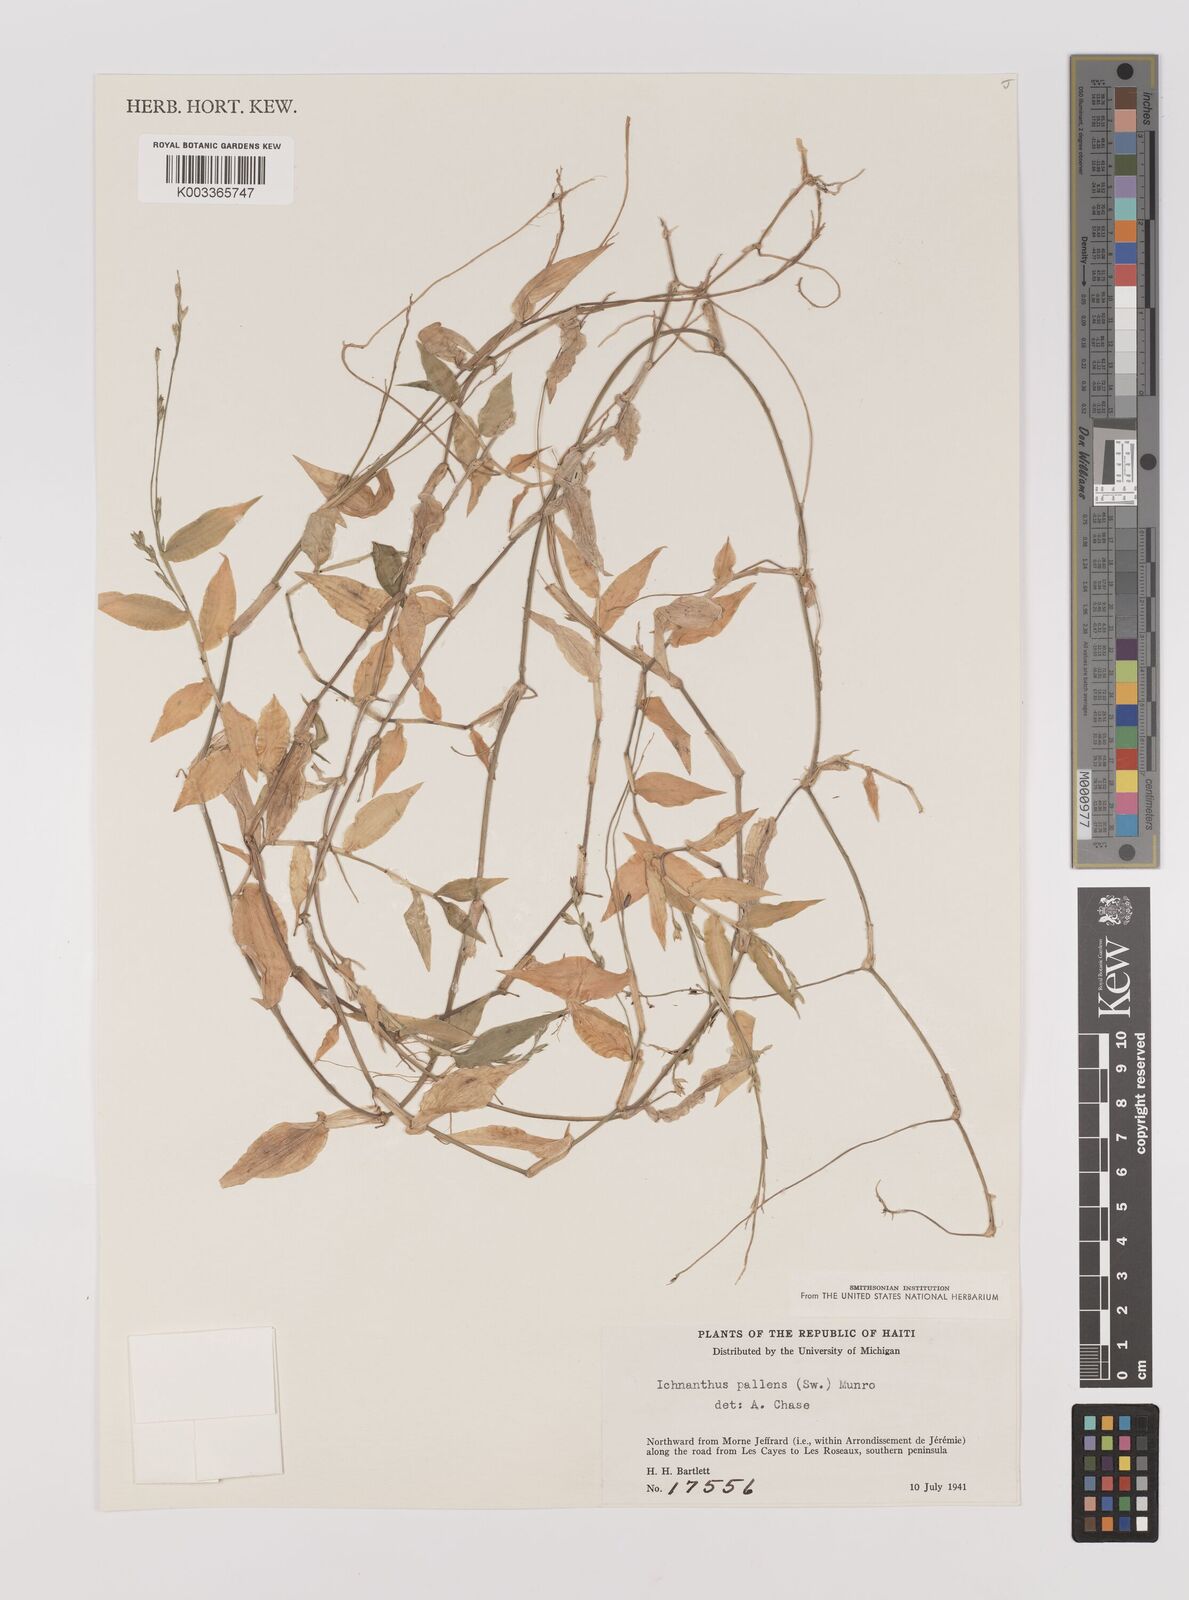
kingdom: Plantae
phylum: Tracheophyta
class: Liliopsida
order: Poales
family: Poaceae
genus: Ichnanthus
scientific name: Ichnanthus pallens
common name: Water grass
